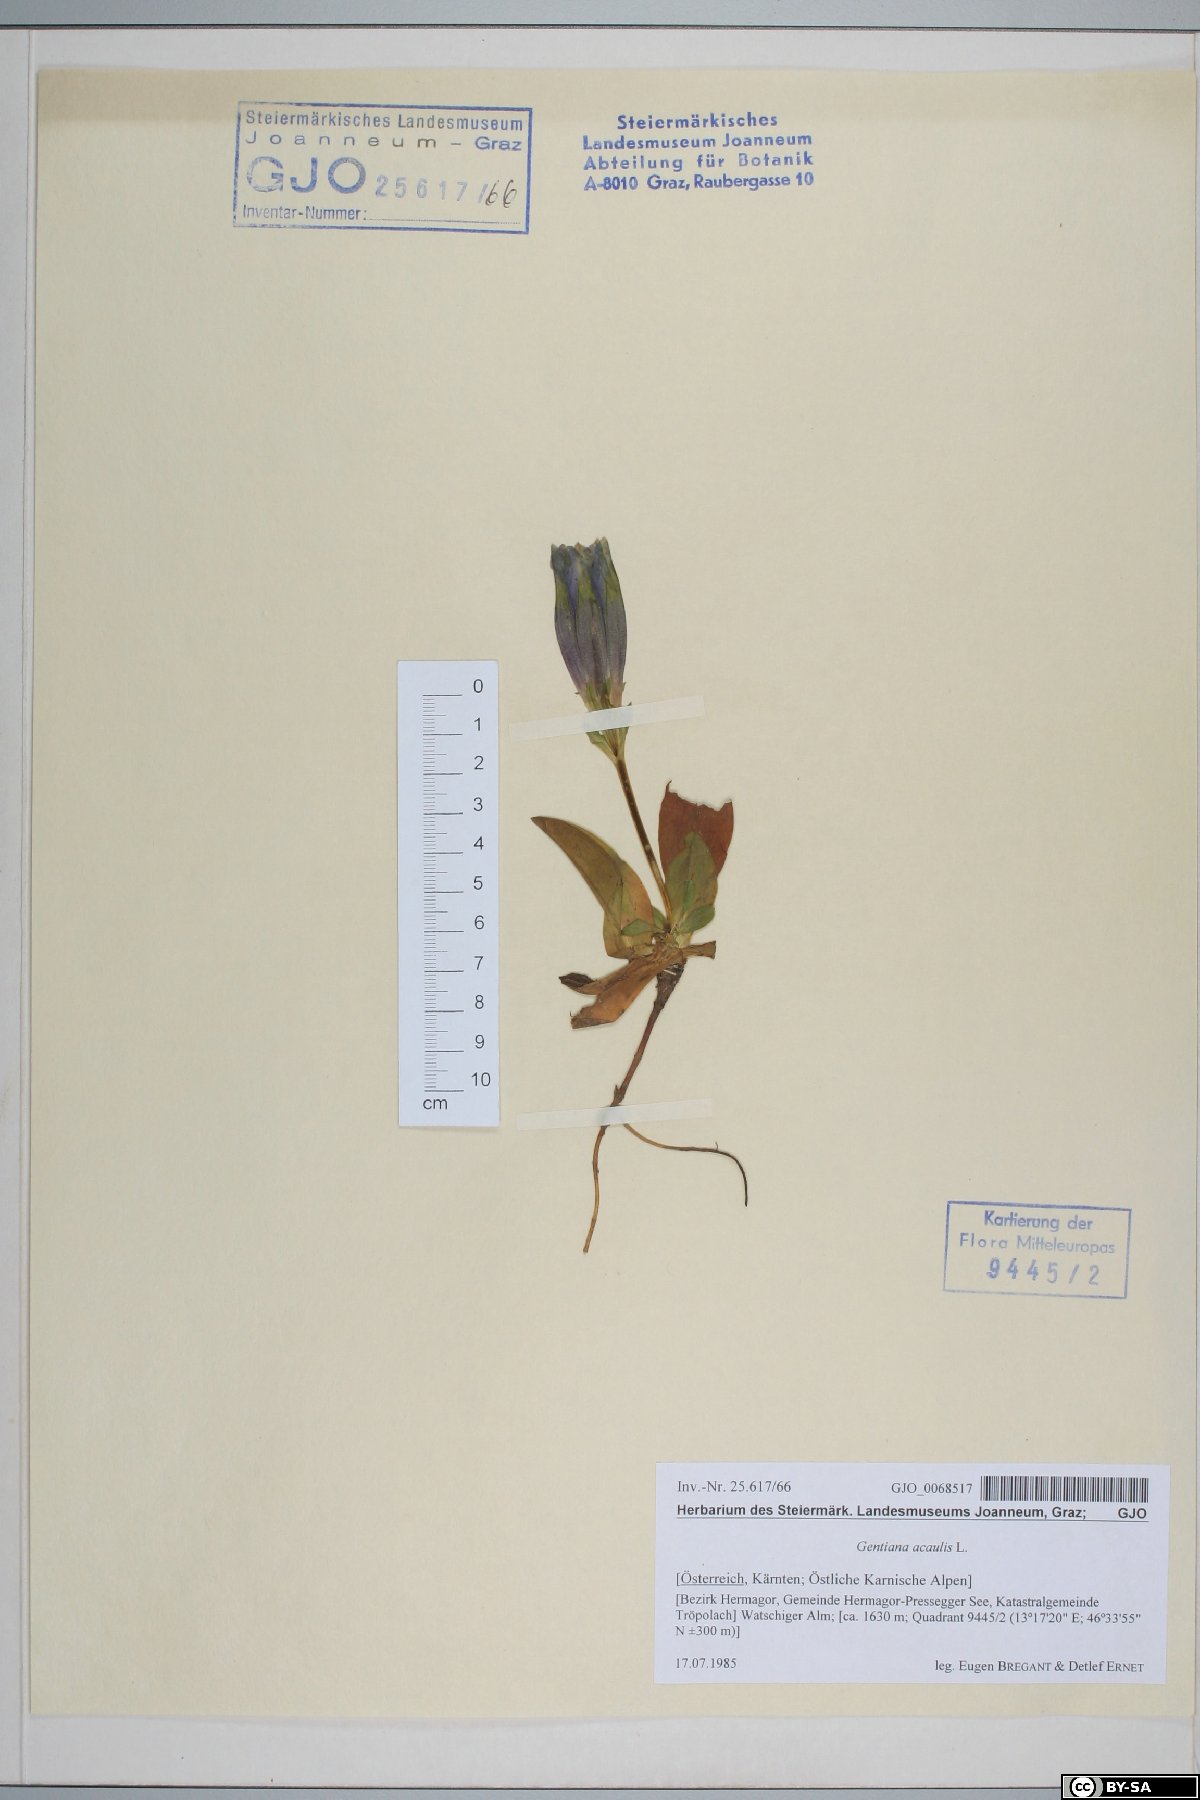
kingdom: Plantae
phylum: Tracheophyta
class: Magnoliopsida
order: Gentianales
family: Gentianaceae
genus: Gentiana
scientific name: Gentiana acaulis
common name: Trumpet gentian
